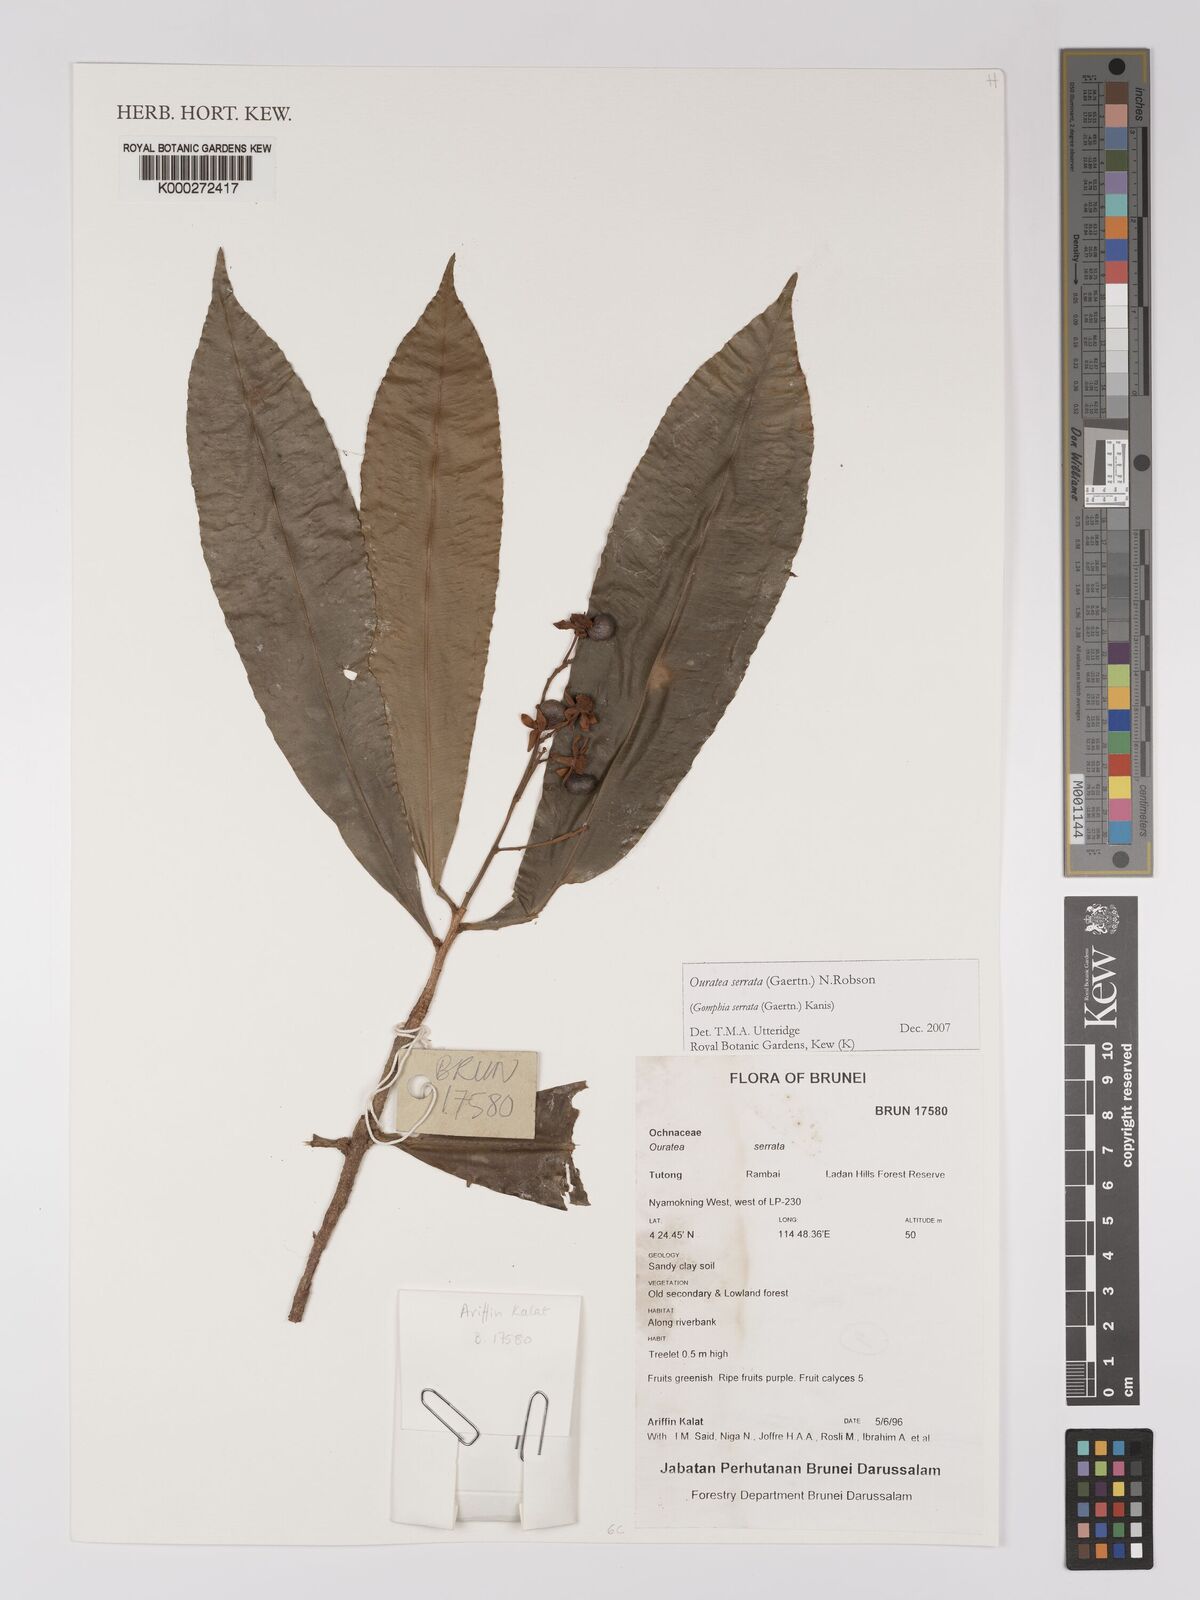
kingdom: Plantae
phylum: Tracheophyta
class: Magnoliopsida
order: Malpighiales
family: Ochnaceae
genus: Gomphia
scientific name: Gomphia serrata
